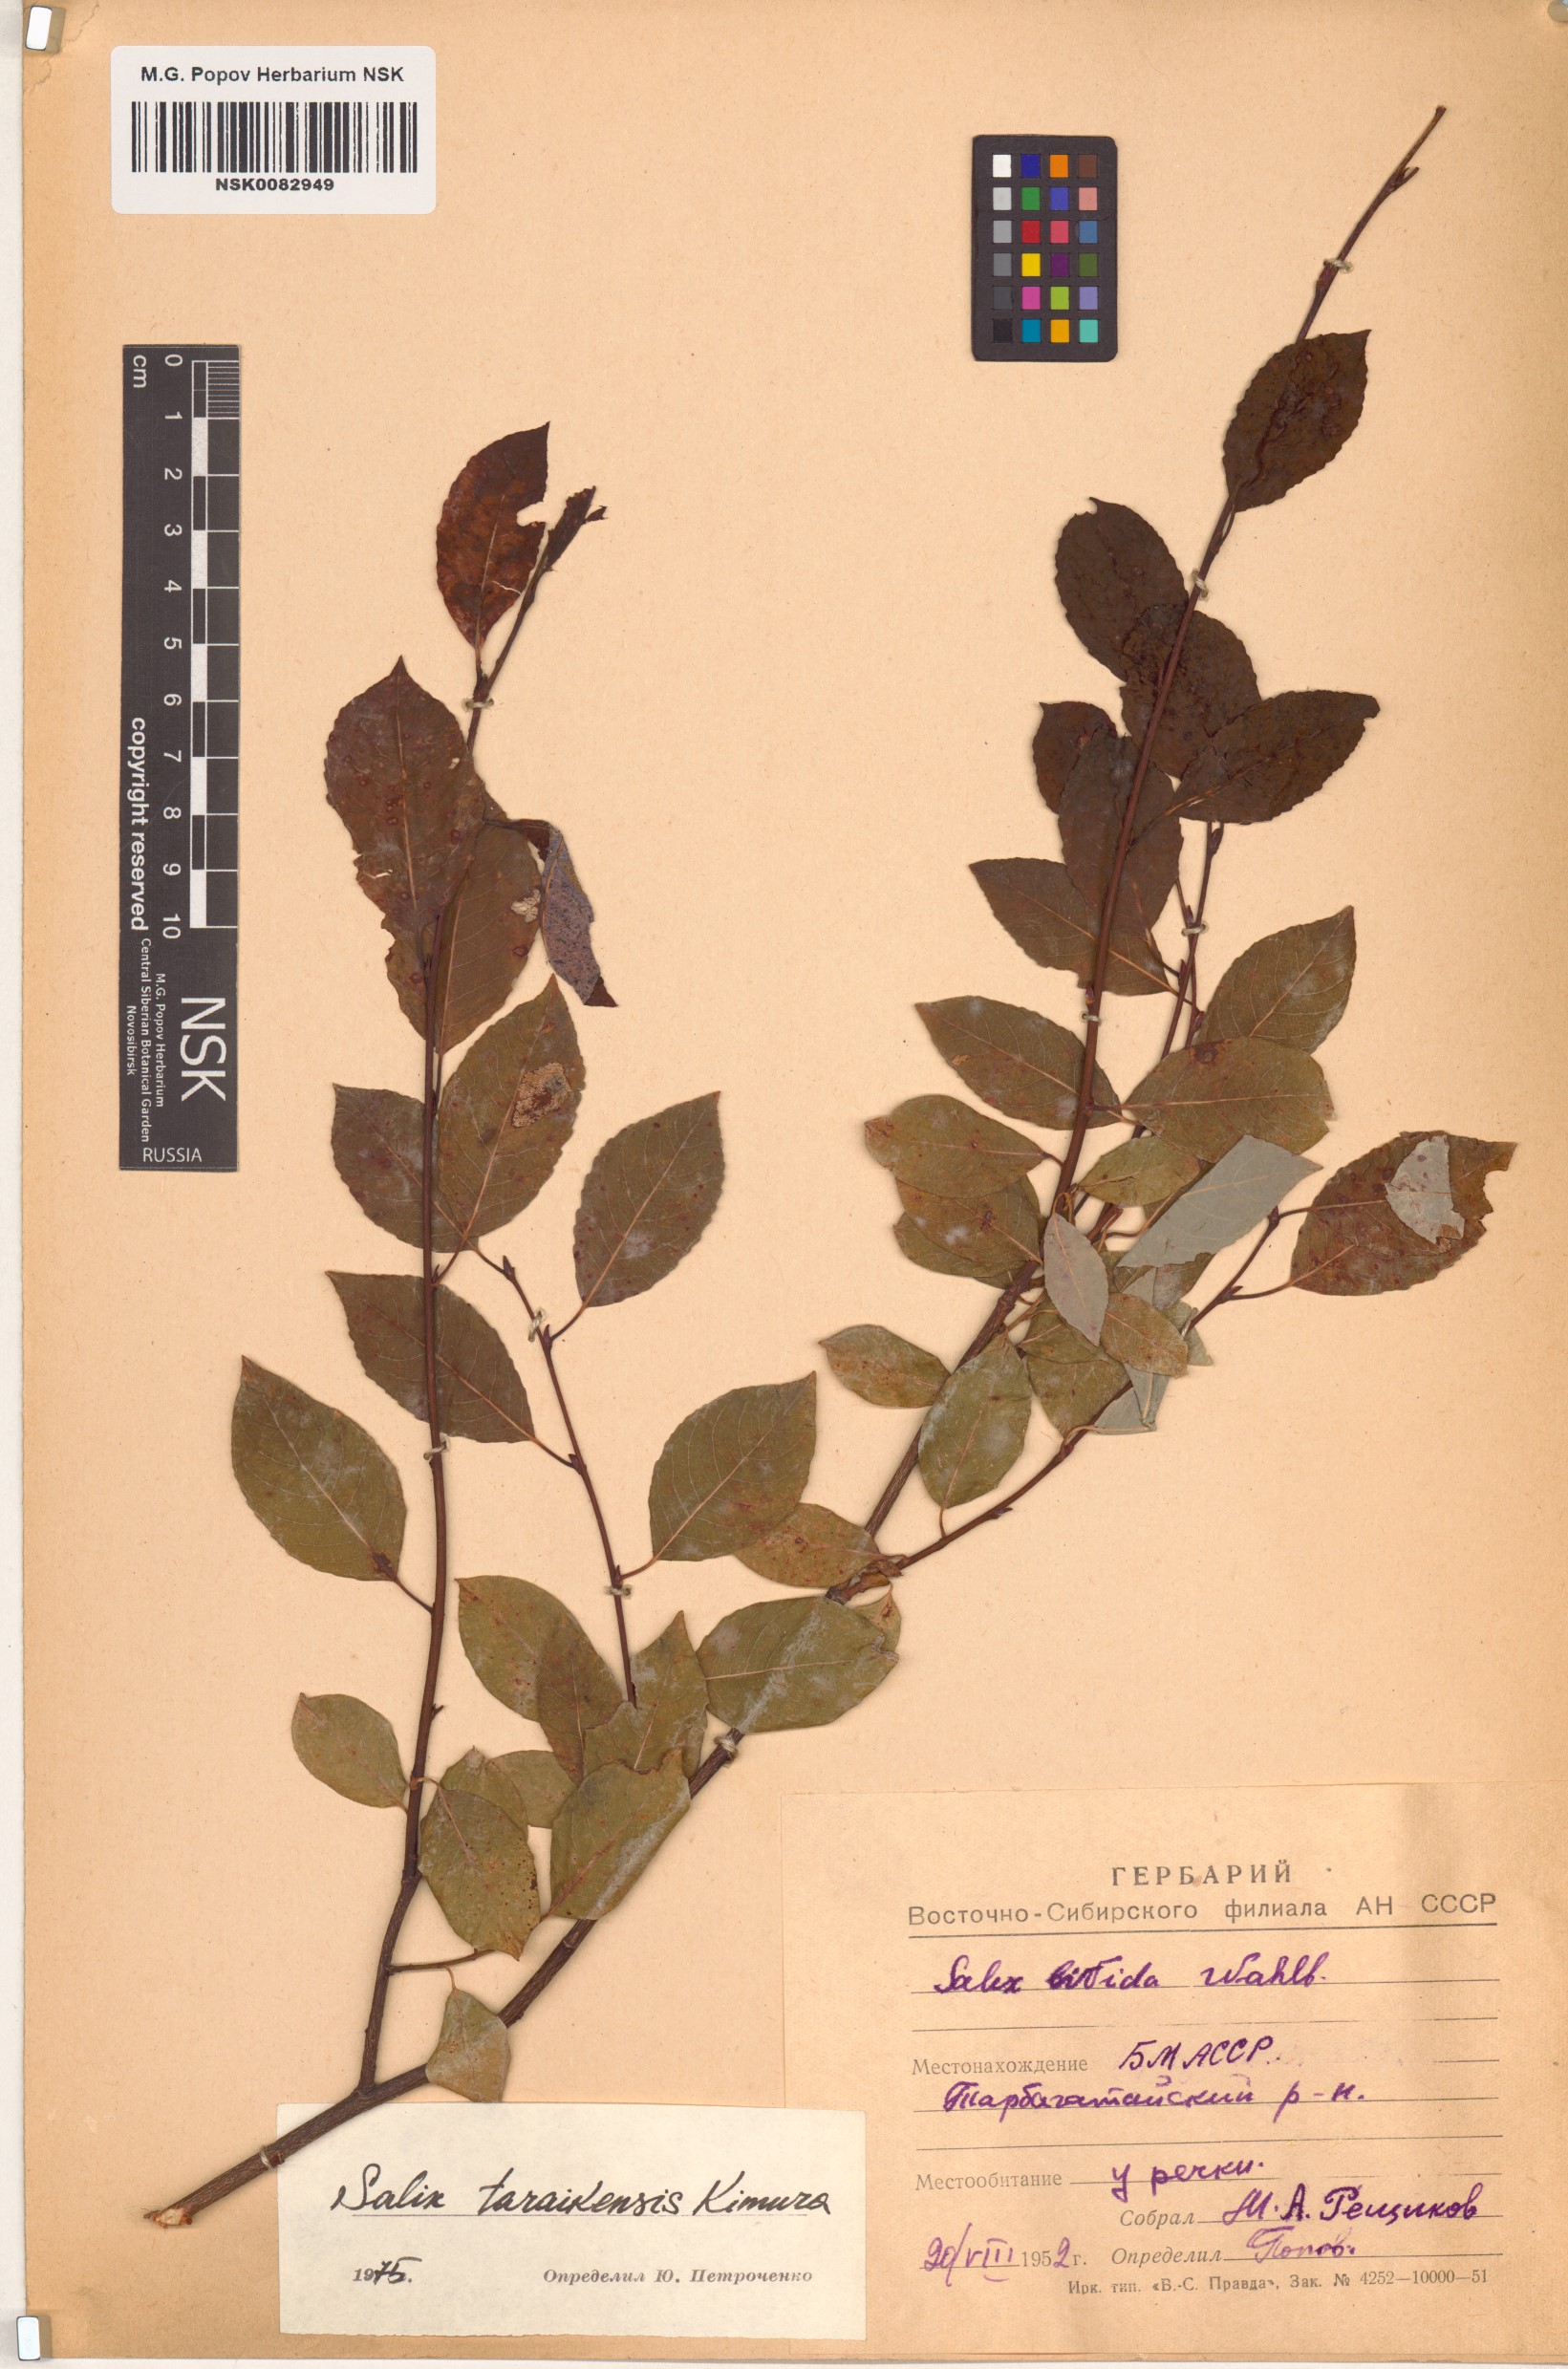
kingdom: Plantae
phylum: Tracheophyta
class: Magnoliopsida
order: Malpighiales
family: Salicaceae
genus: Salix
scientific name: Salix taraikensis
